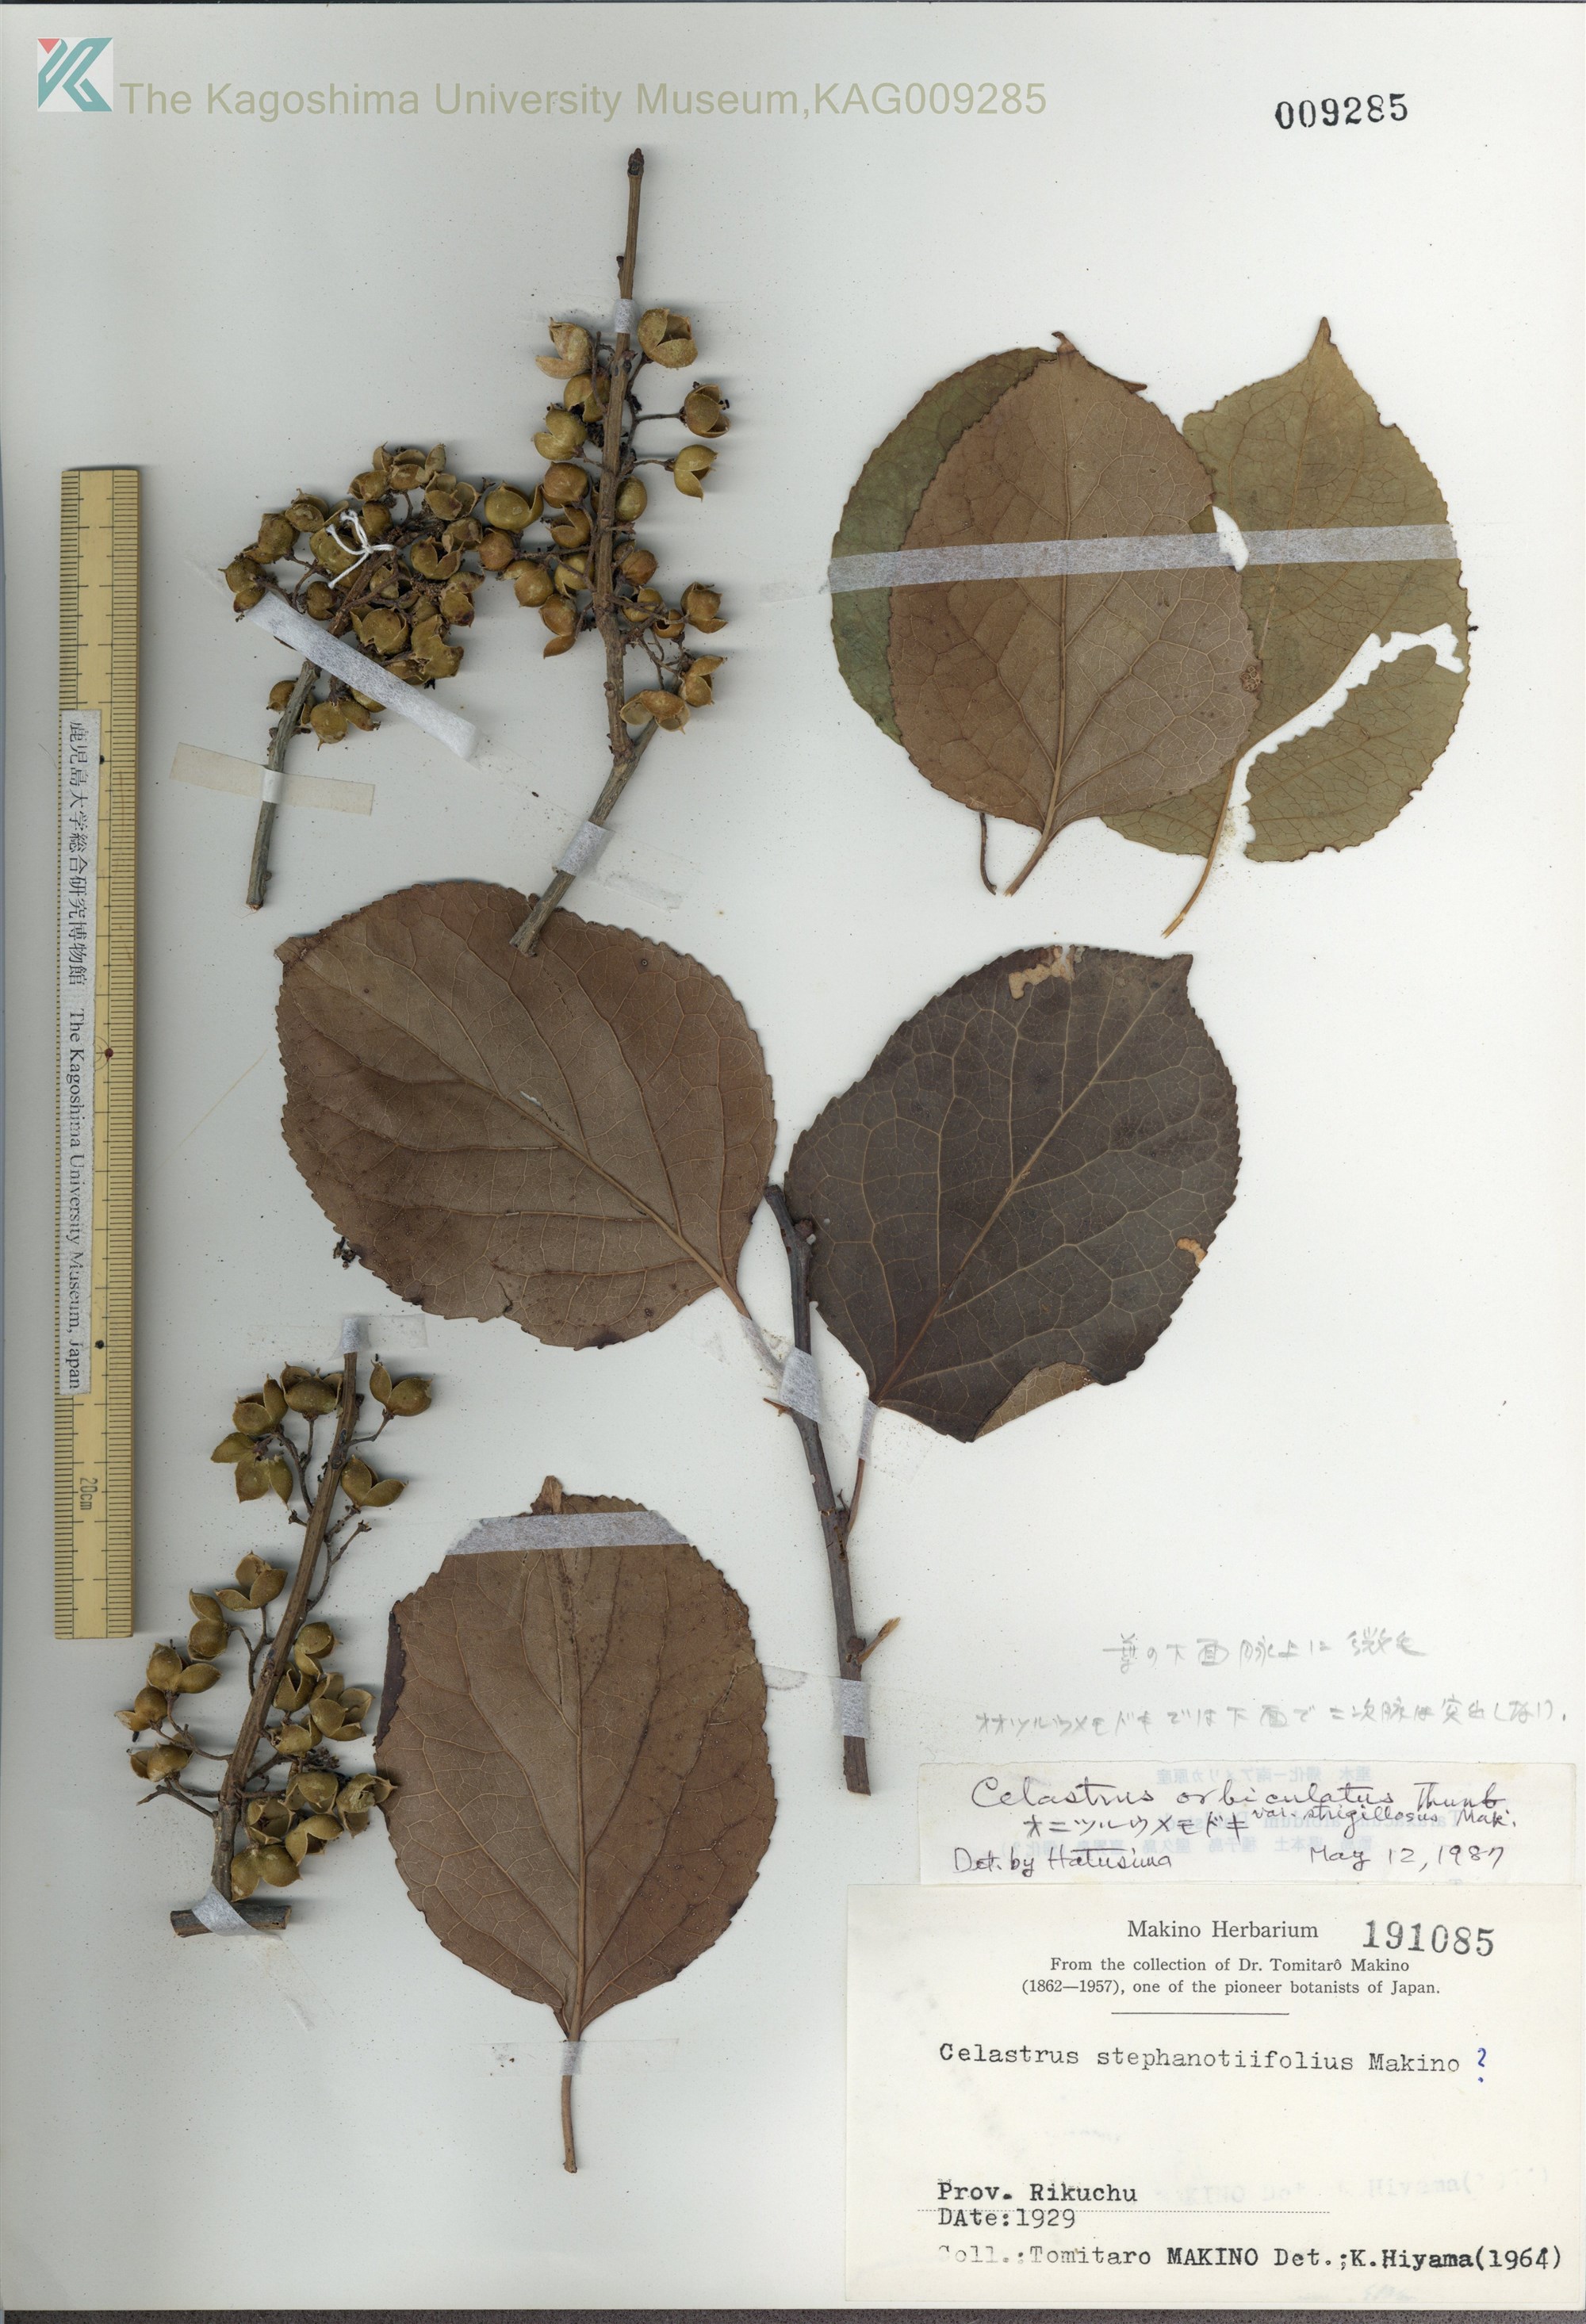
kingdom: Plantae
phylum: Tracheophyta
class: Magnoliopsida
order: Celastrales
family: Celastraceae
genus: Celastrus
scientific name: Celastrus orbiculatus
